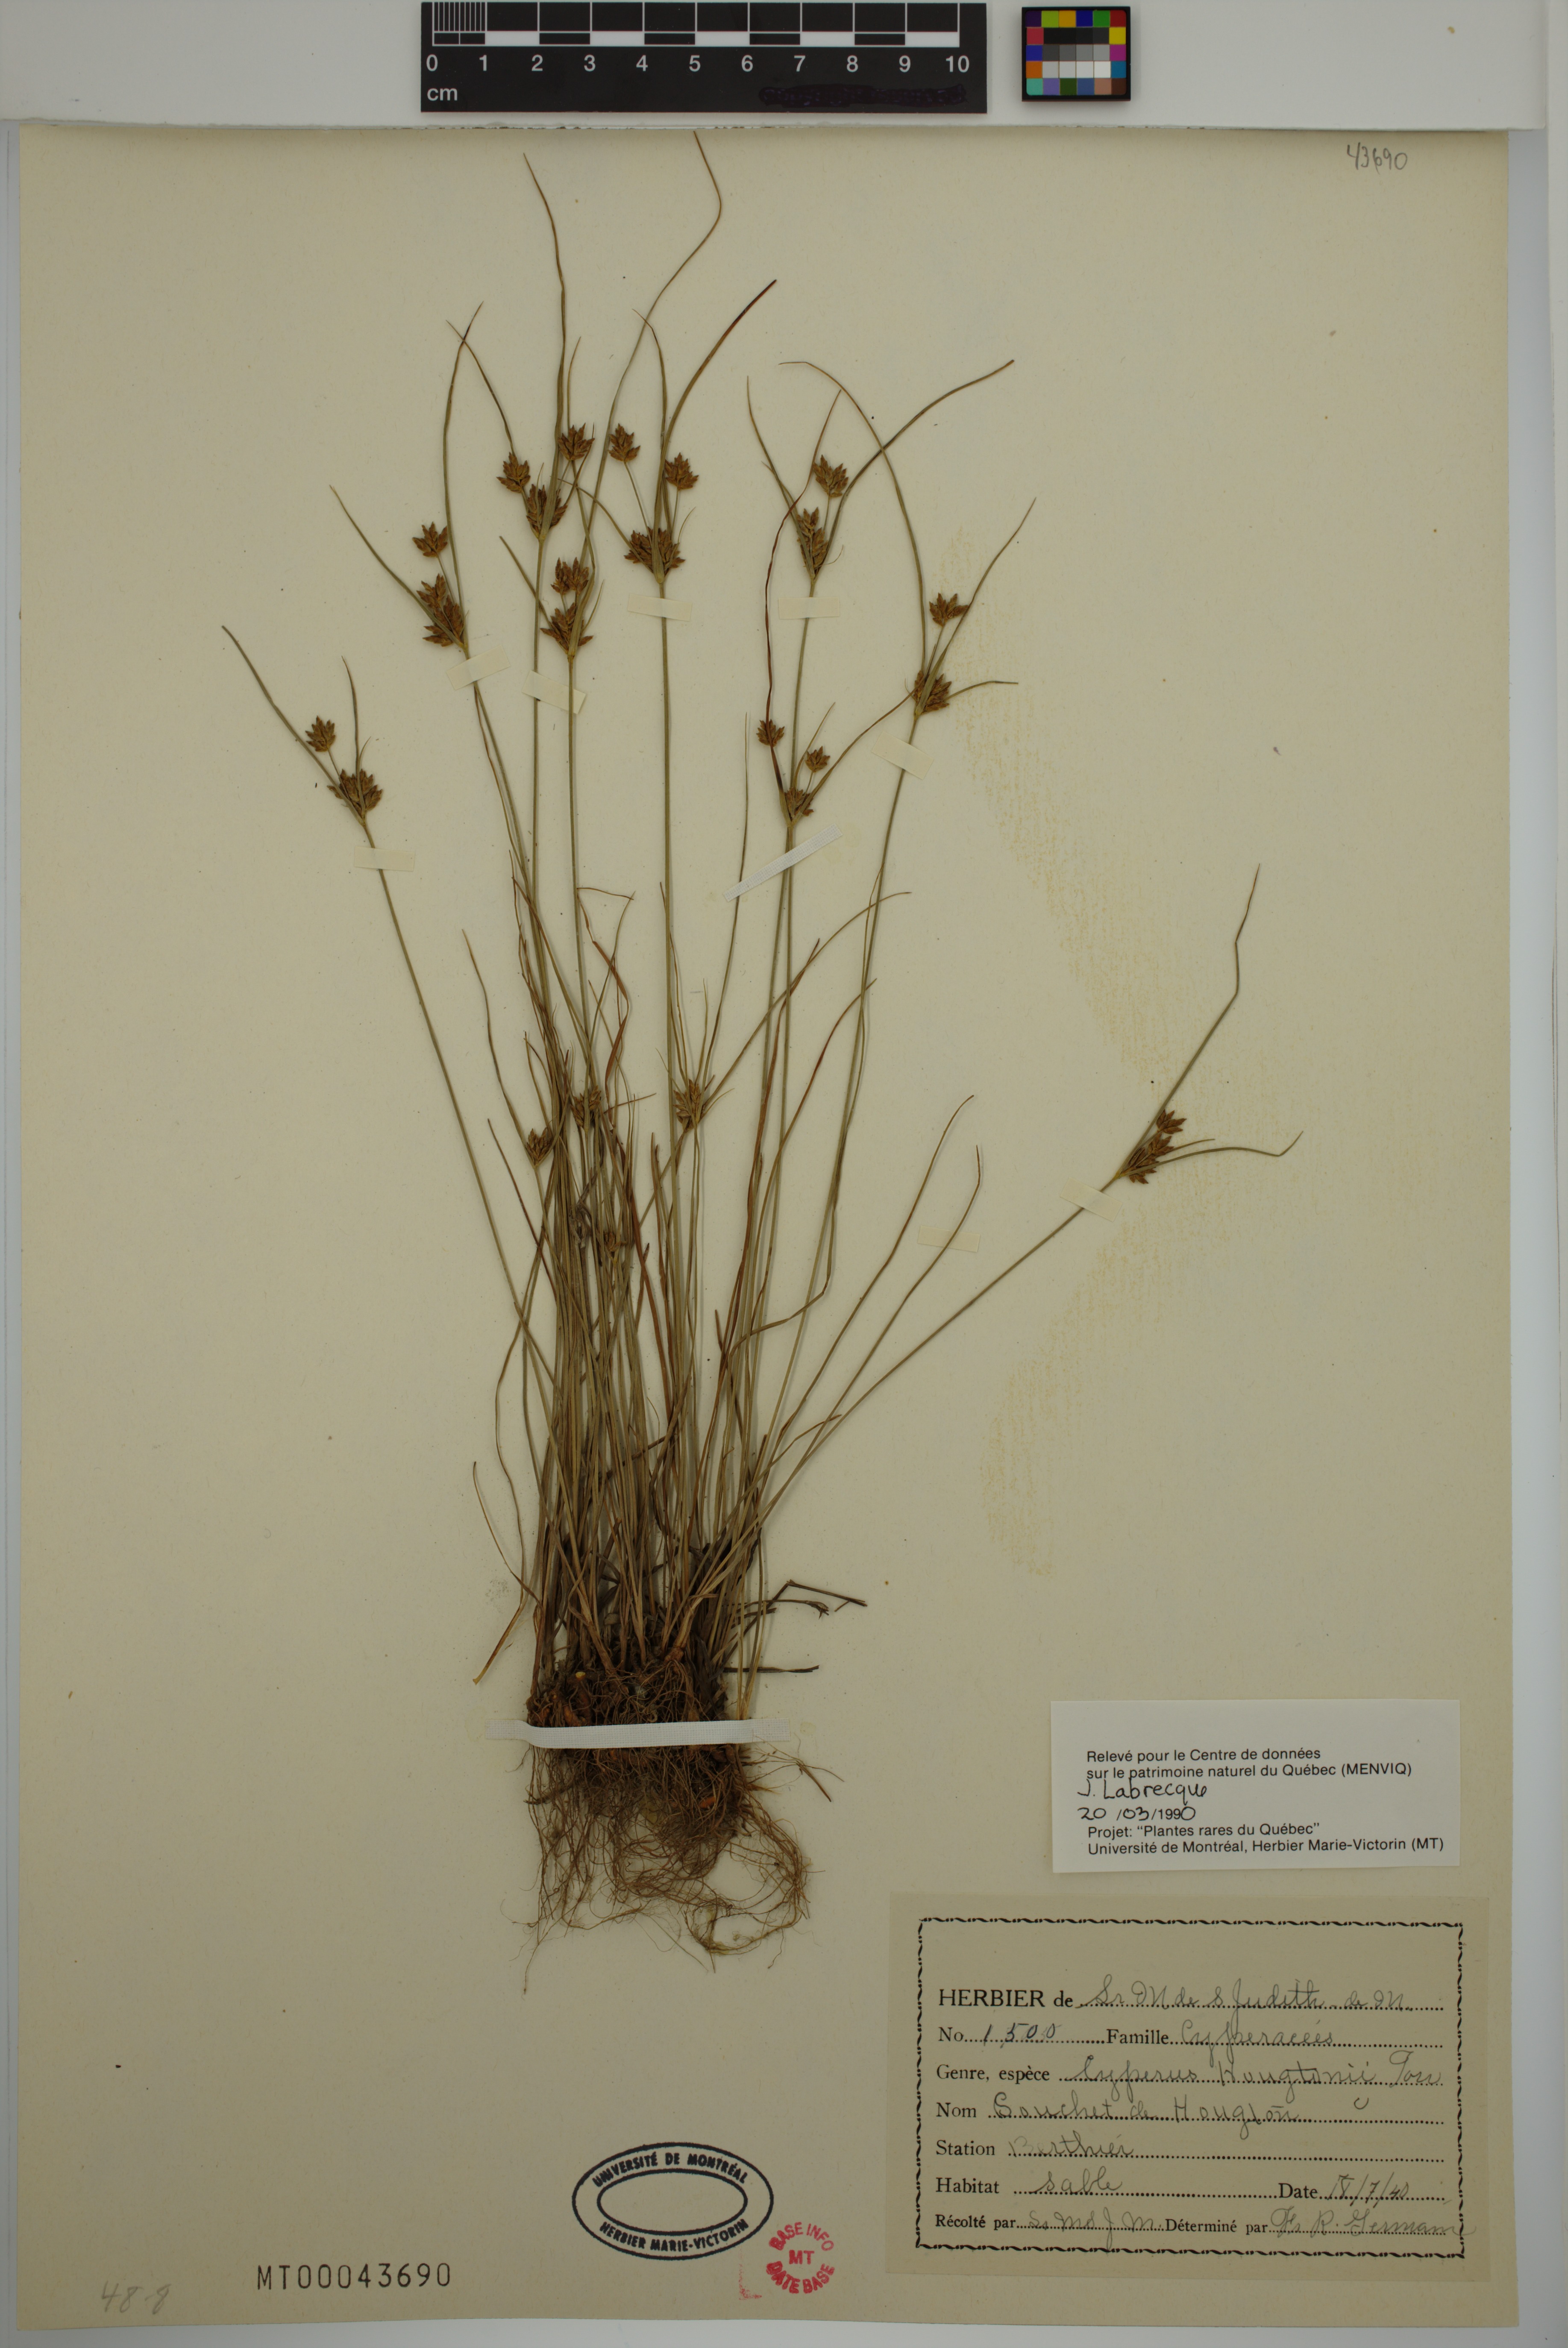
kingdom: Plantae
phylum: Tracheophyta
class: Liliopsida
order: Poales
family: Cyperaceae
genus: Cyperus
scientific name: Cyperus houghtonii
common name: Houghton's cyperus
